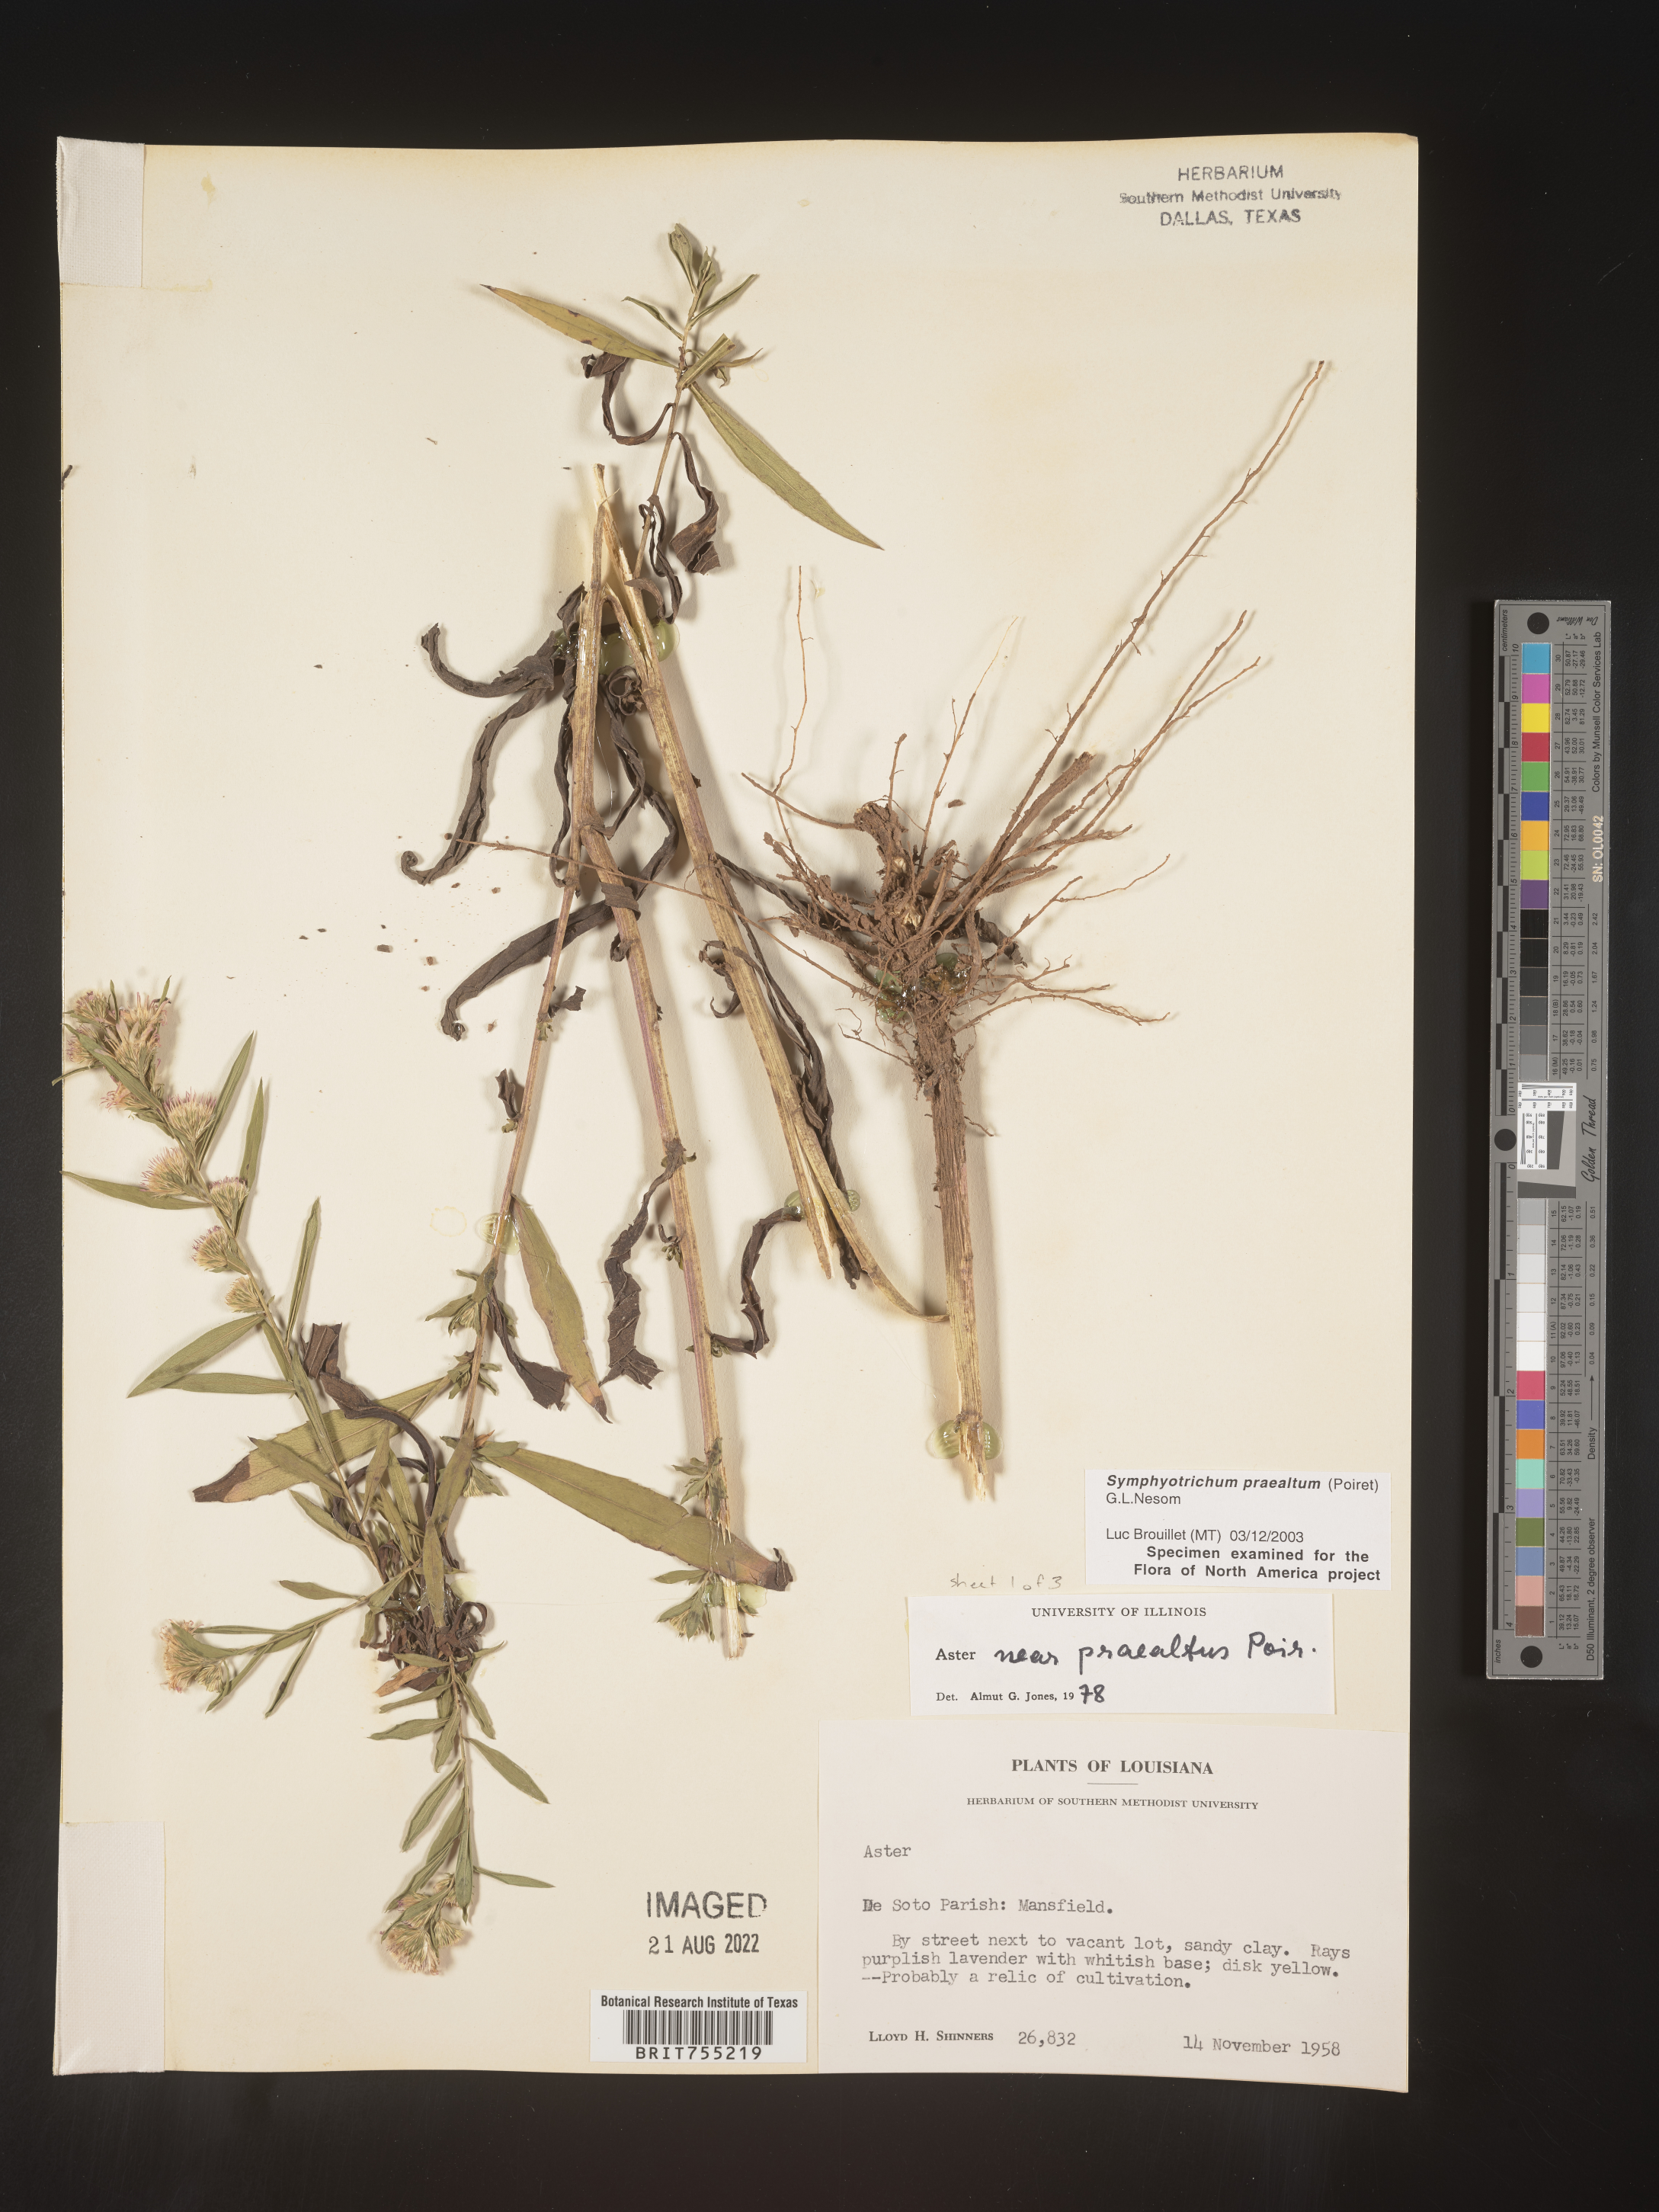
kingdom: Plantae
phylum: Tracheophyta
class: Magnoliopsida
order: Asterales
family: Asteraceae
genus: Symphyotrichum
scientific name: Symphyotrichum praealtum
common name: Willow aster
